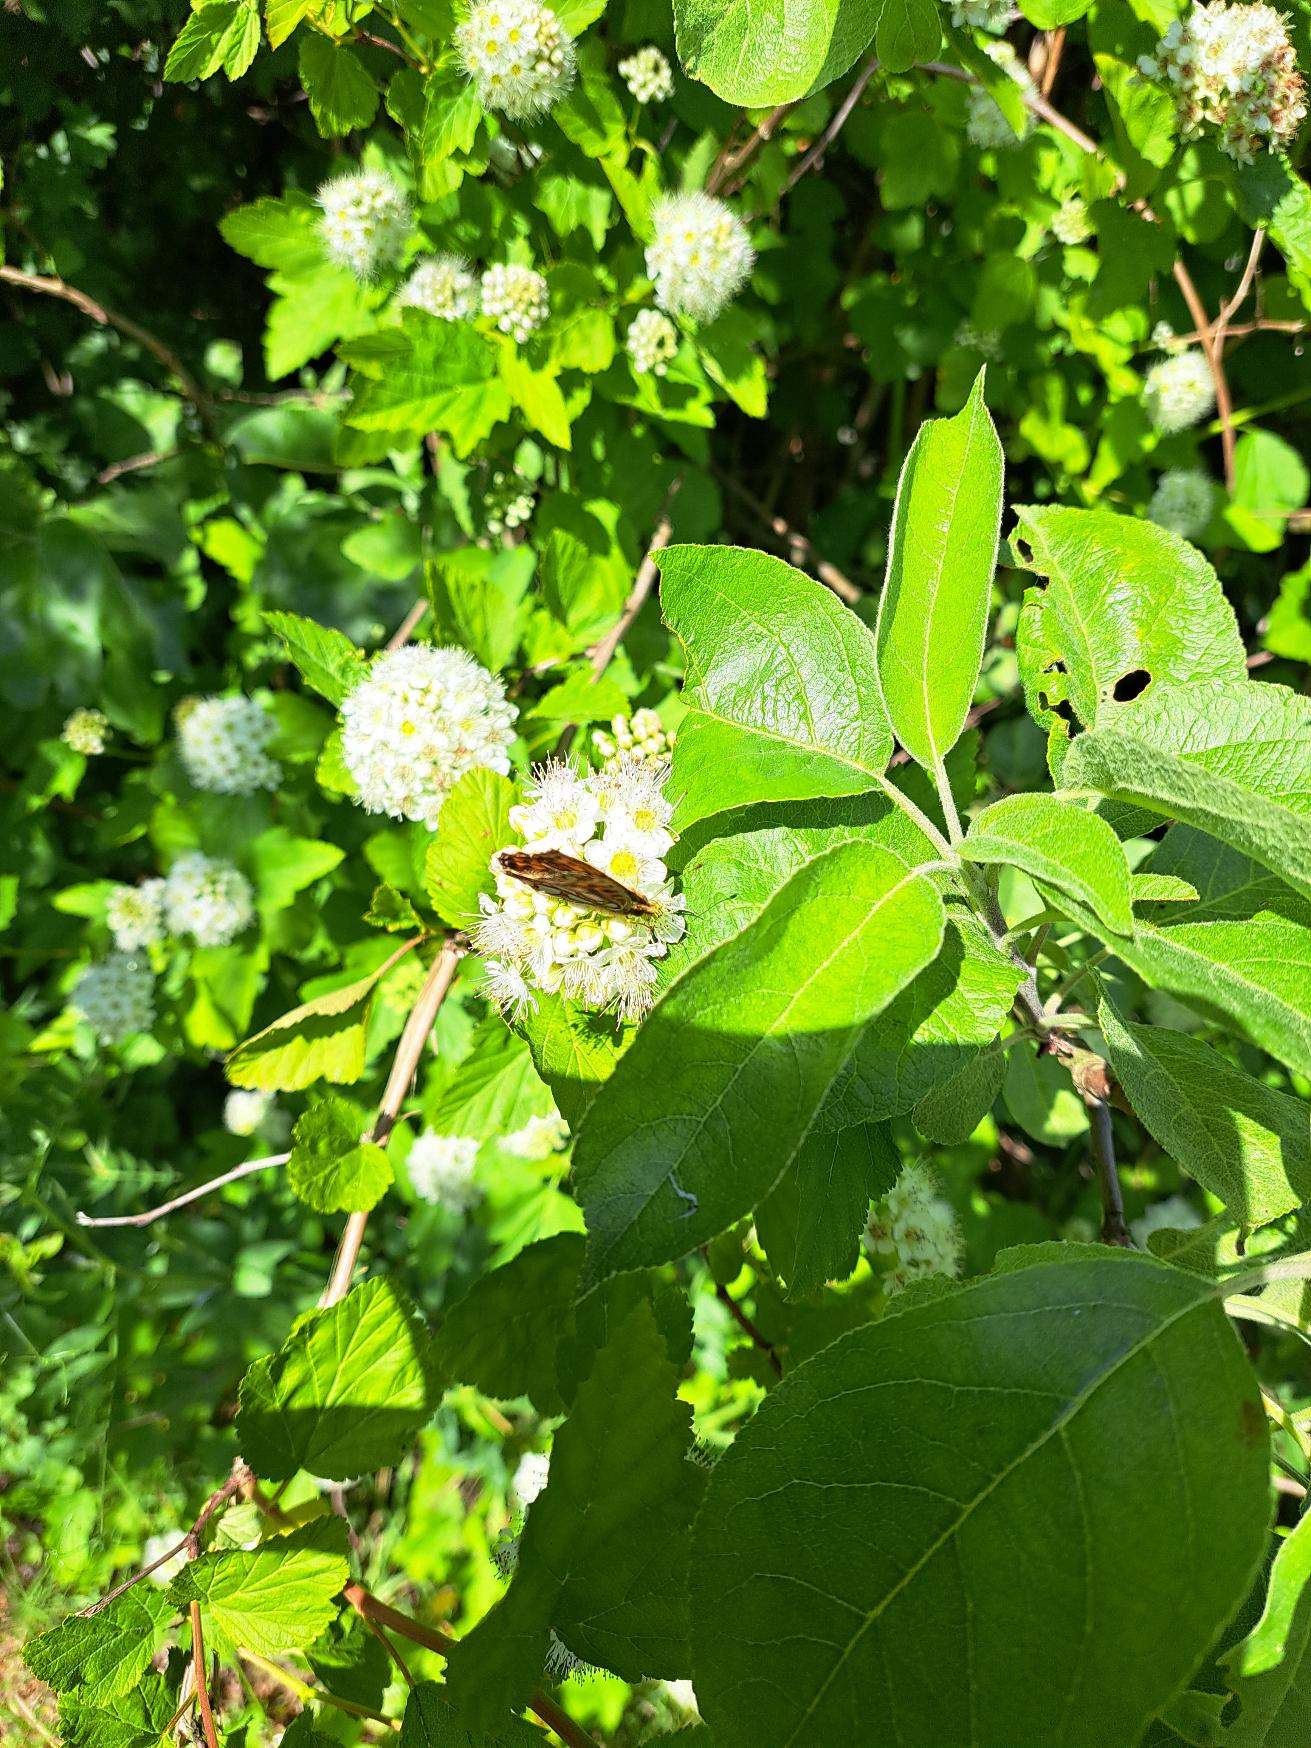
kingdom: Animalia
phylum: Arthropoda
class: Insecta
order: Lepidoptera
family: Nymphalidae
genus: Issoria
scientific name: Issoria lathonia
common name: Storplettet perlemorsommerfugl
